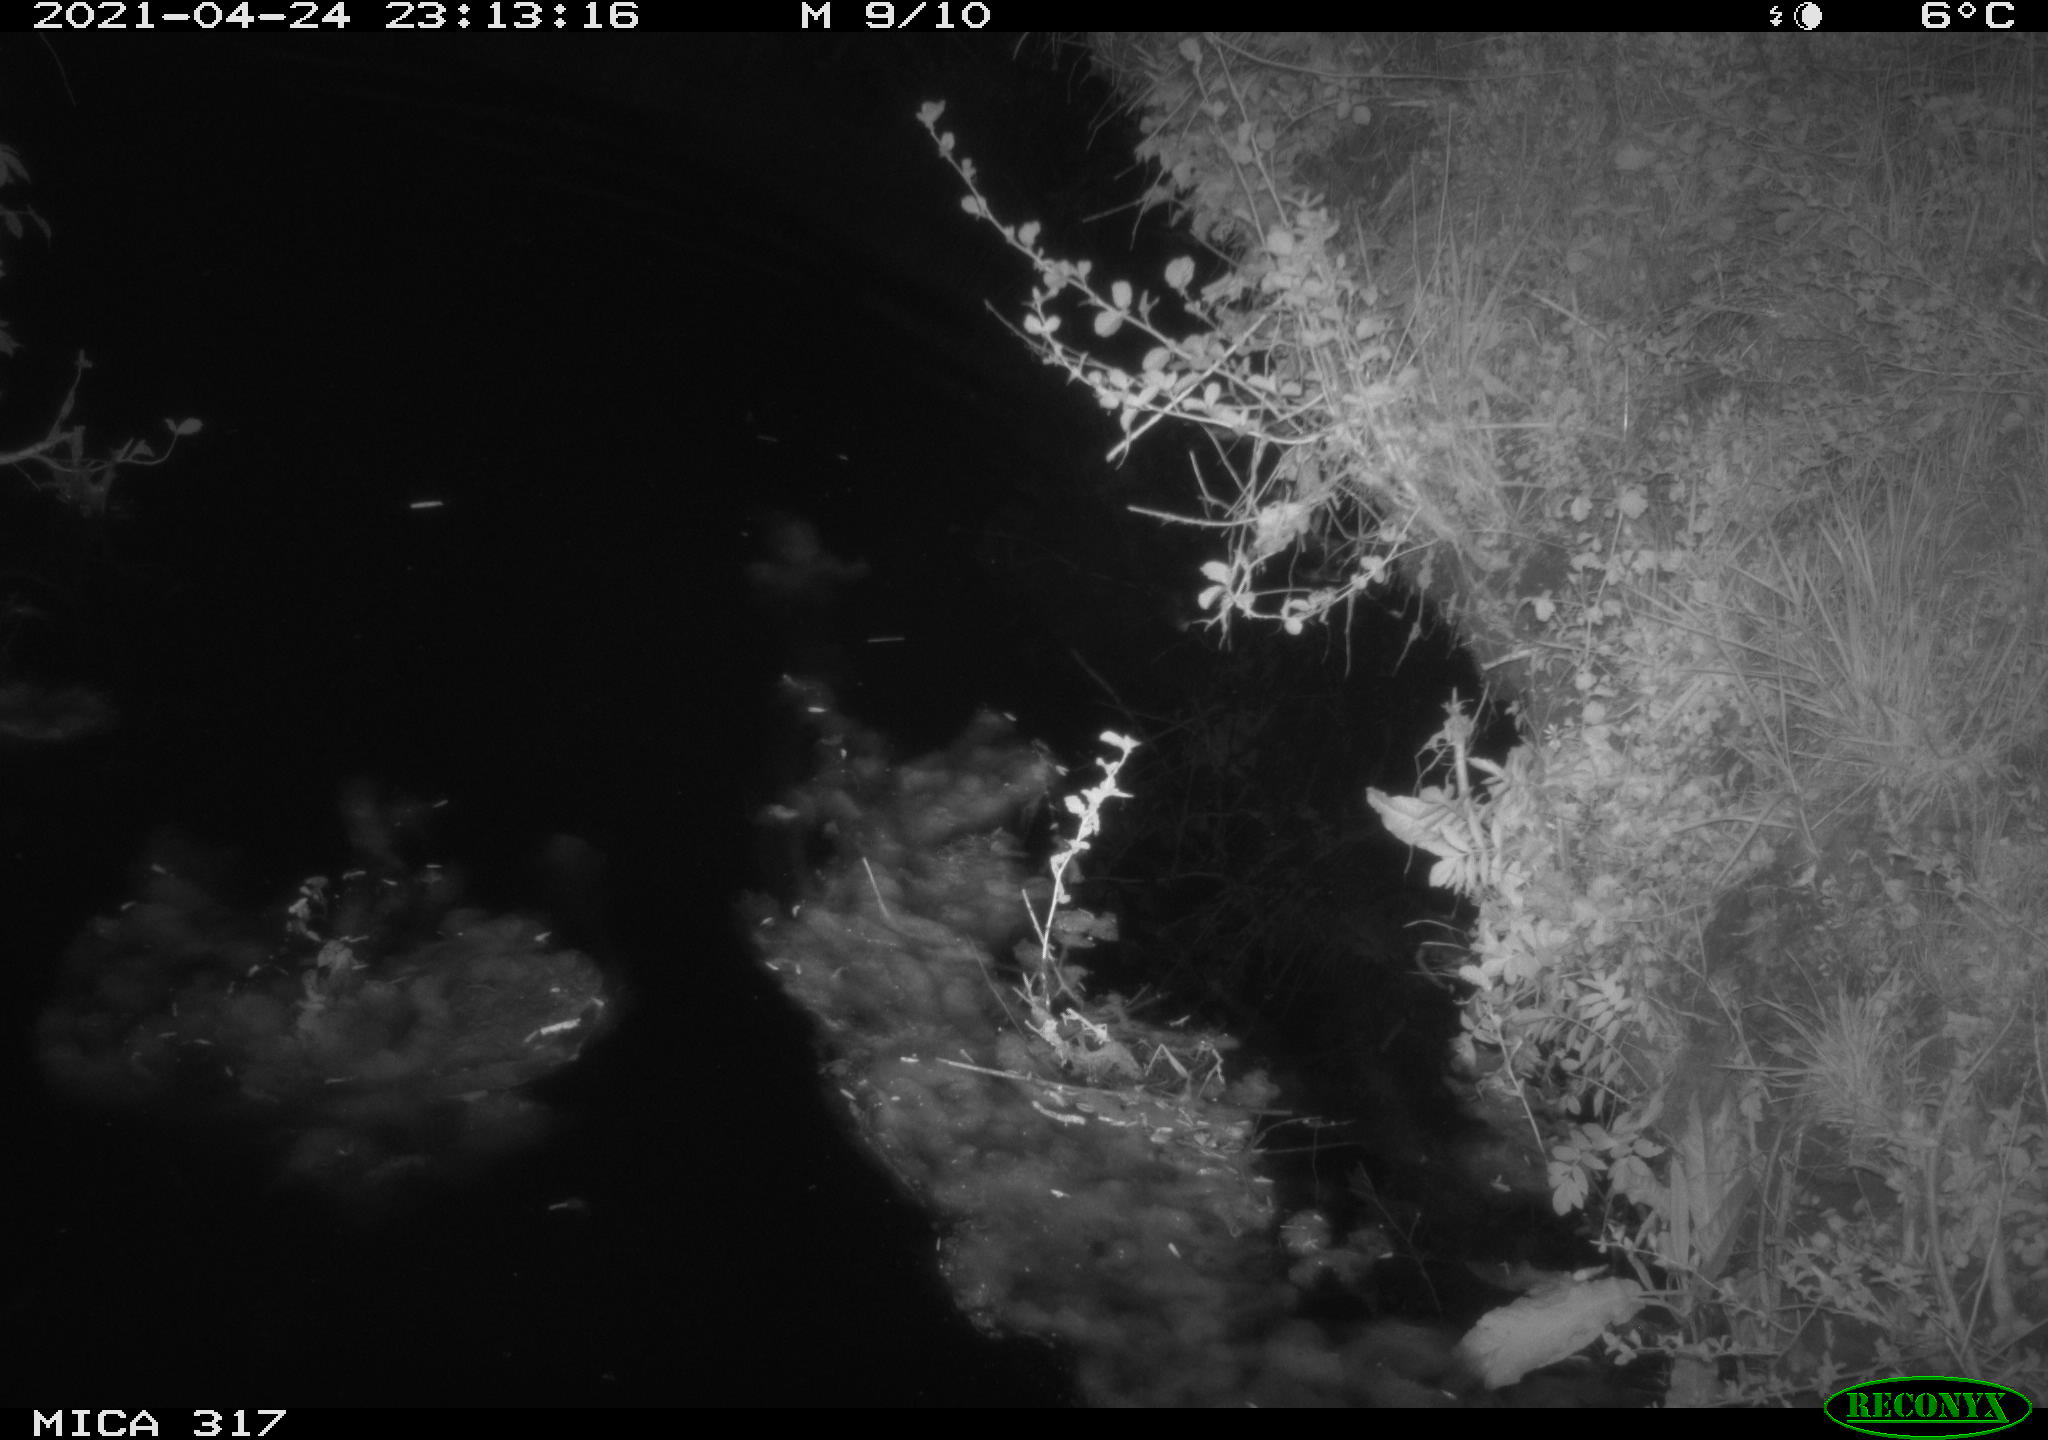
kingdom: Animalia
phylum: Chordata
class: Aves
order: Anseriformes
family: Anatidae
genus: Anas
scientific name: Anas
